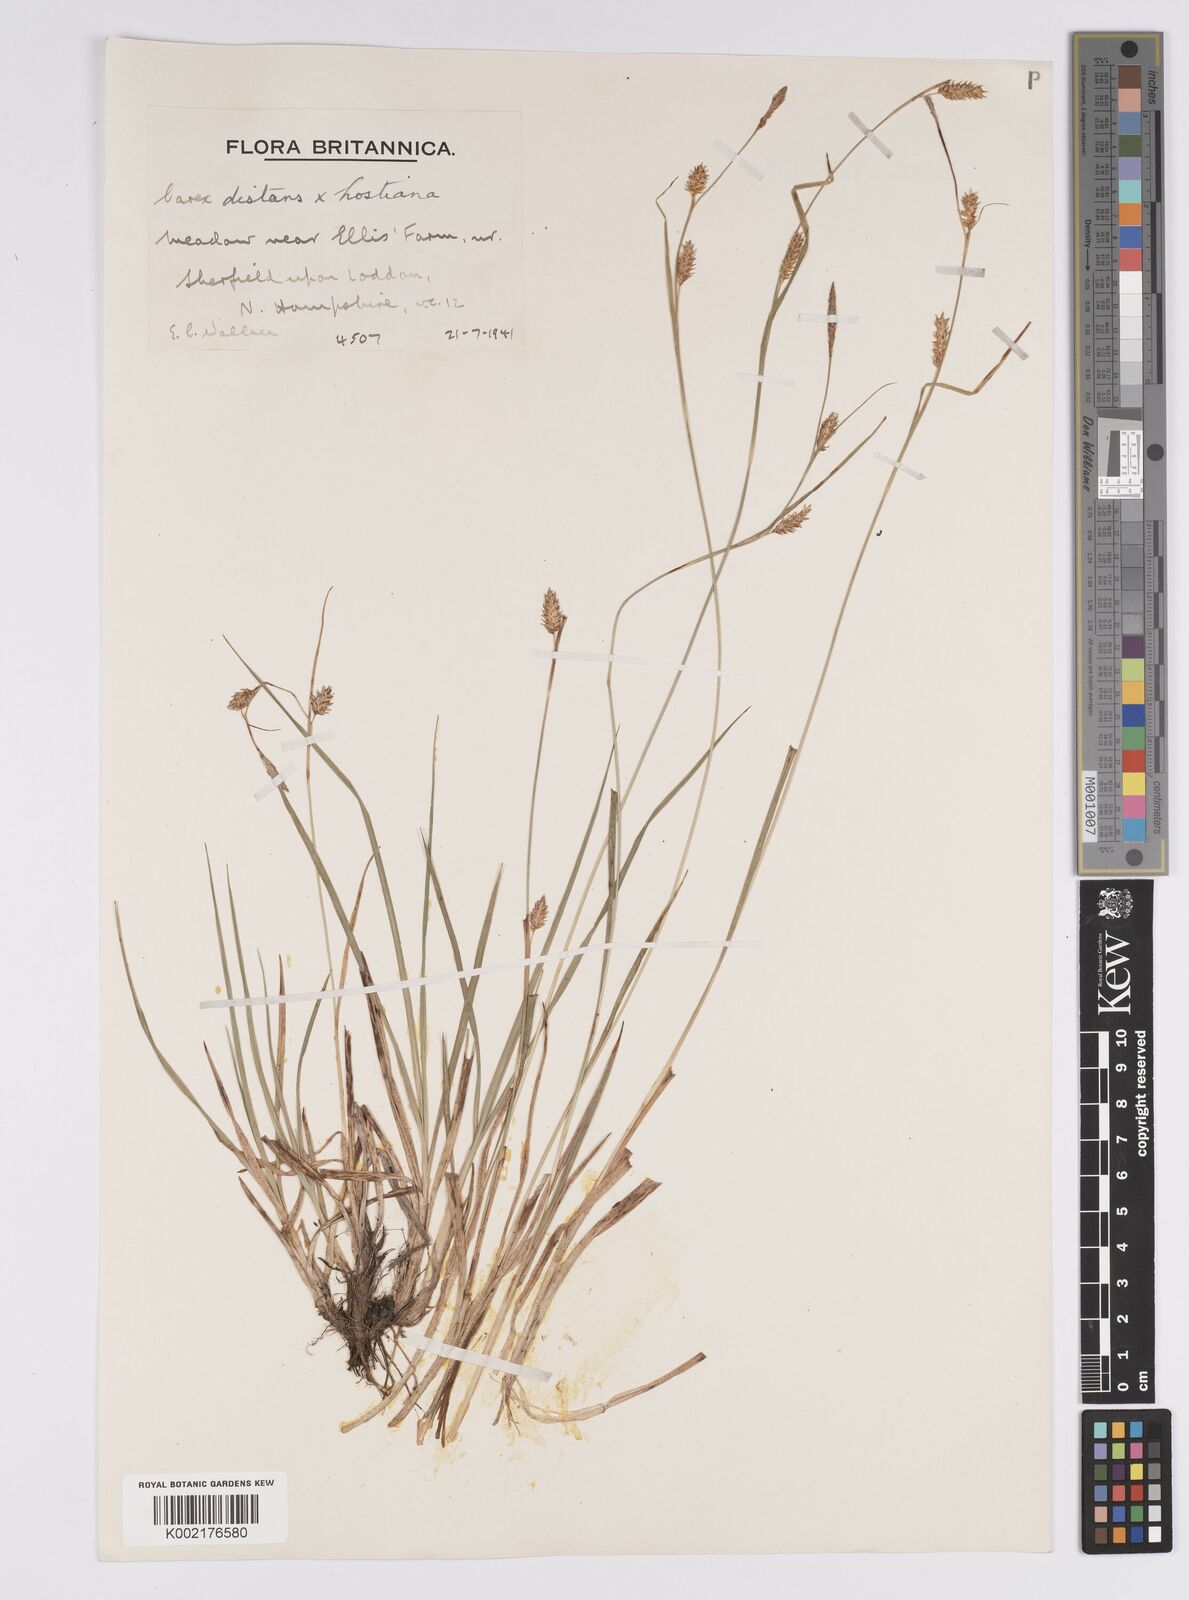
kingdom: Plantae
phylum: Tracheophyta
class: Liliopsida
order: Poales
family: Cyperaceae
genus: Carex
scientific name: Carex distans
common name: Distant sedge
